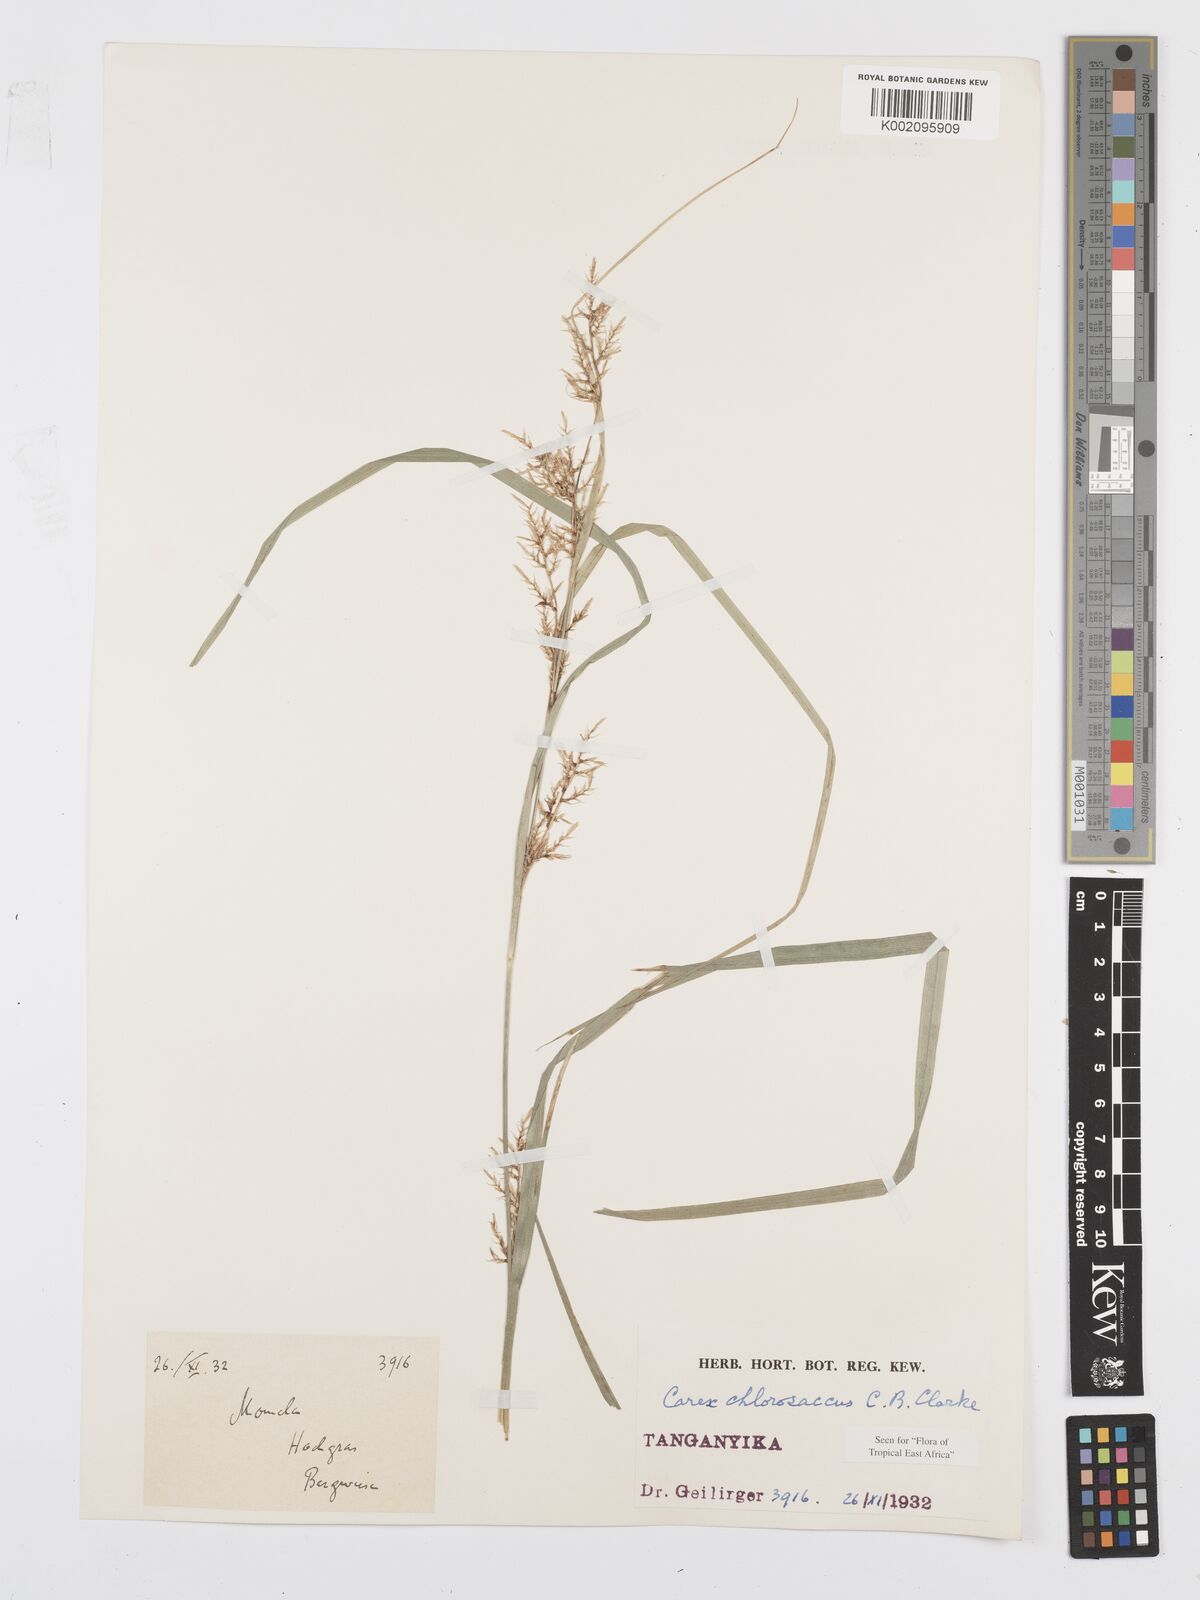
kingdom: Plantae
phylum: Tracheophyta
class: Liliopsida
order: Poales
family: Cyperaceae
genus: Carex
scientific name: Carex chlorosaccus
